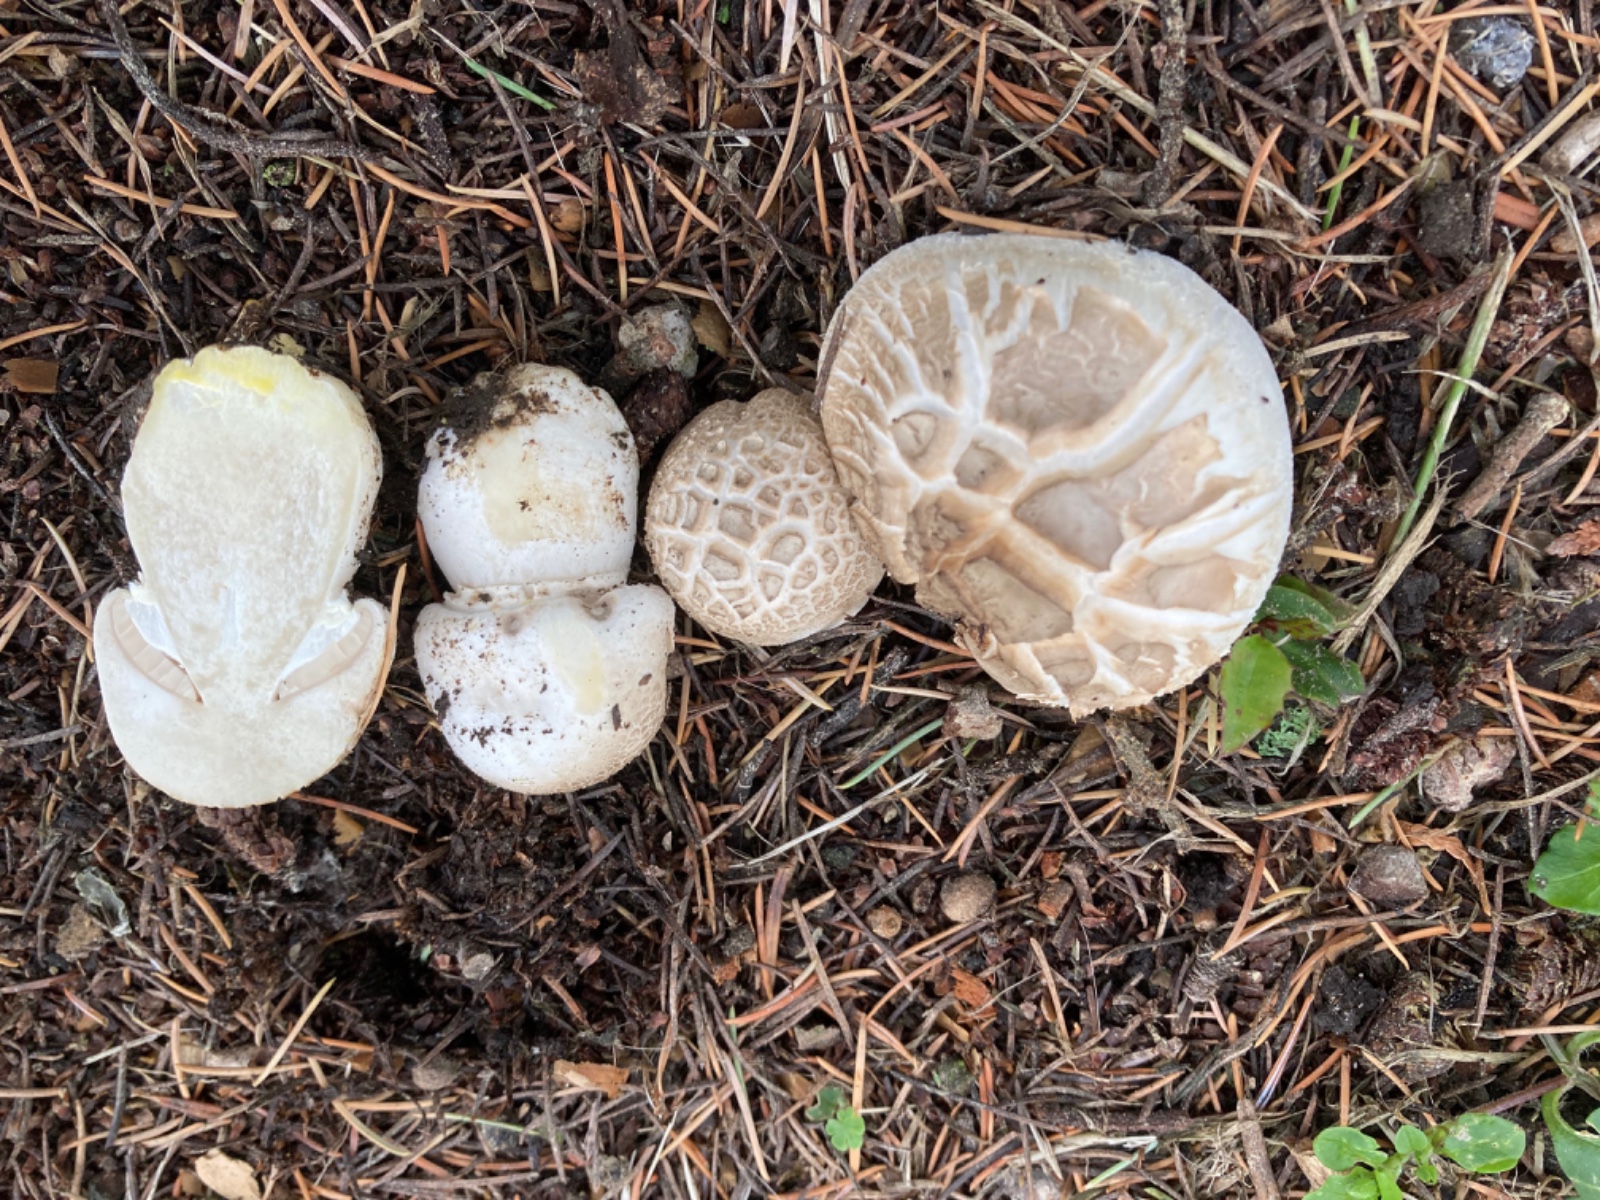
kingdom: Fungi
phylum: Basidiomycota
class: Agaricomycetes
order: Agaricales
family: Agaricaceae
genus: Agaricus
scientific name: Agaricus xanthodermus
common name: karbol-champignon
